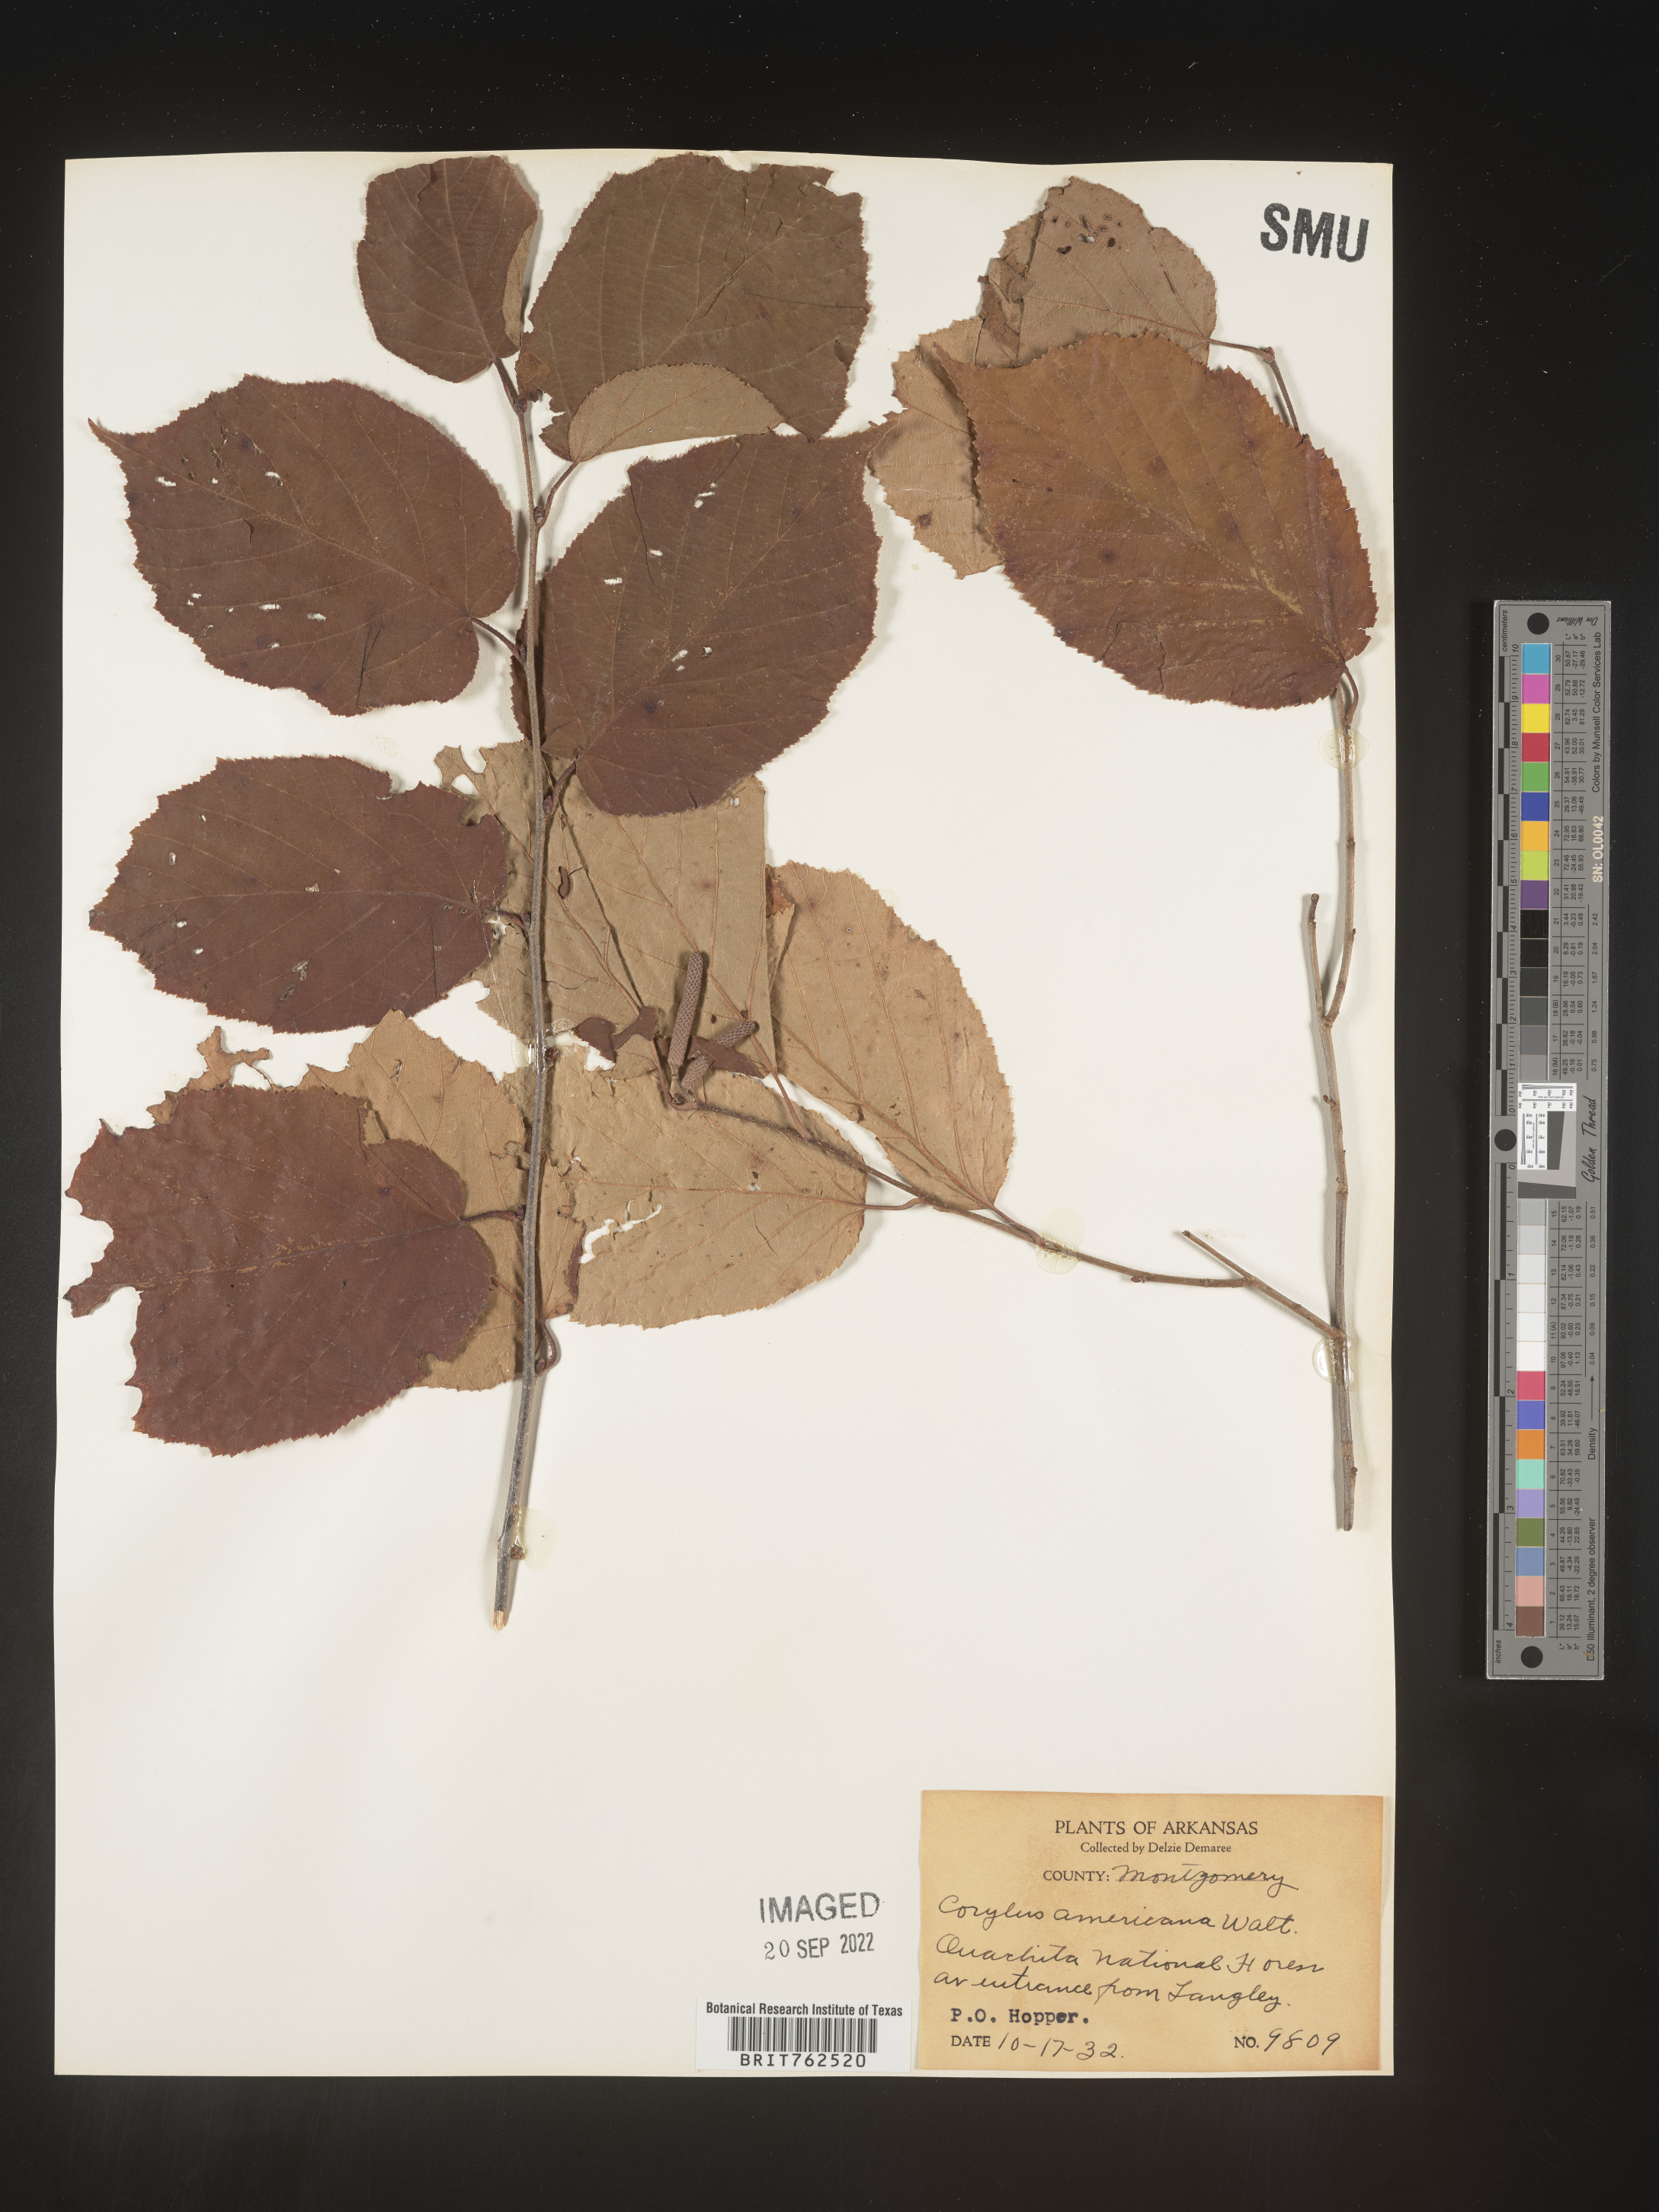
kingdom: Plantae
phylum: Tracheophyta
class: Magnoliopsida
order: Fagales
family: Betulaceae
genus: Corylus
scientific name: Corylus americana
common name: American hazel
